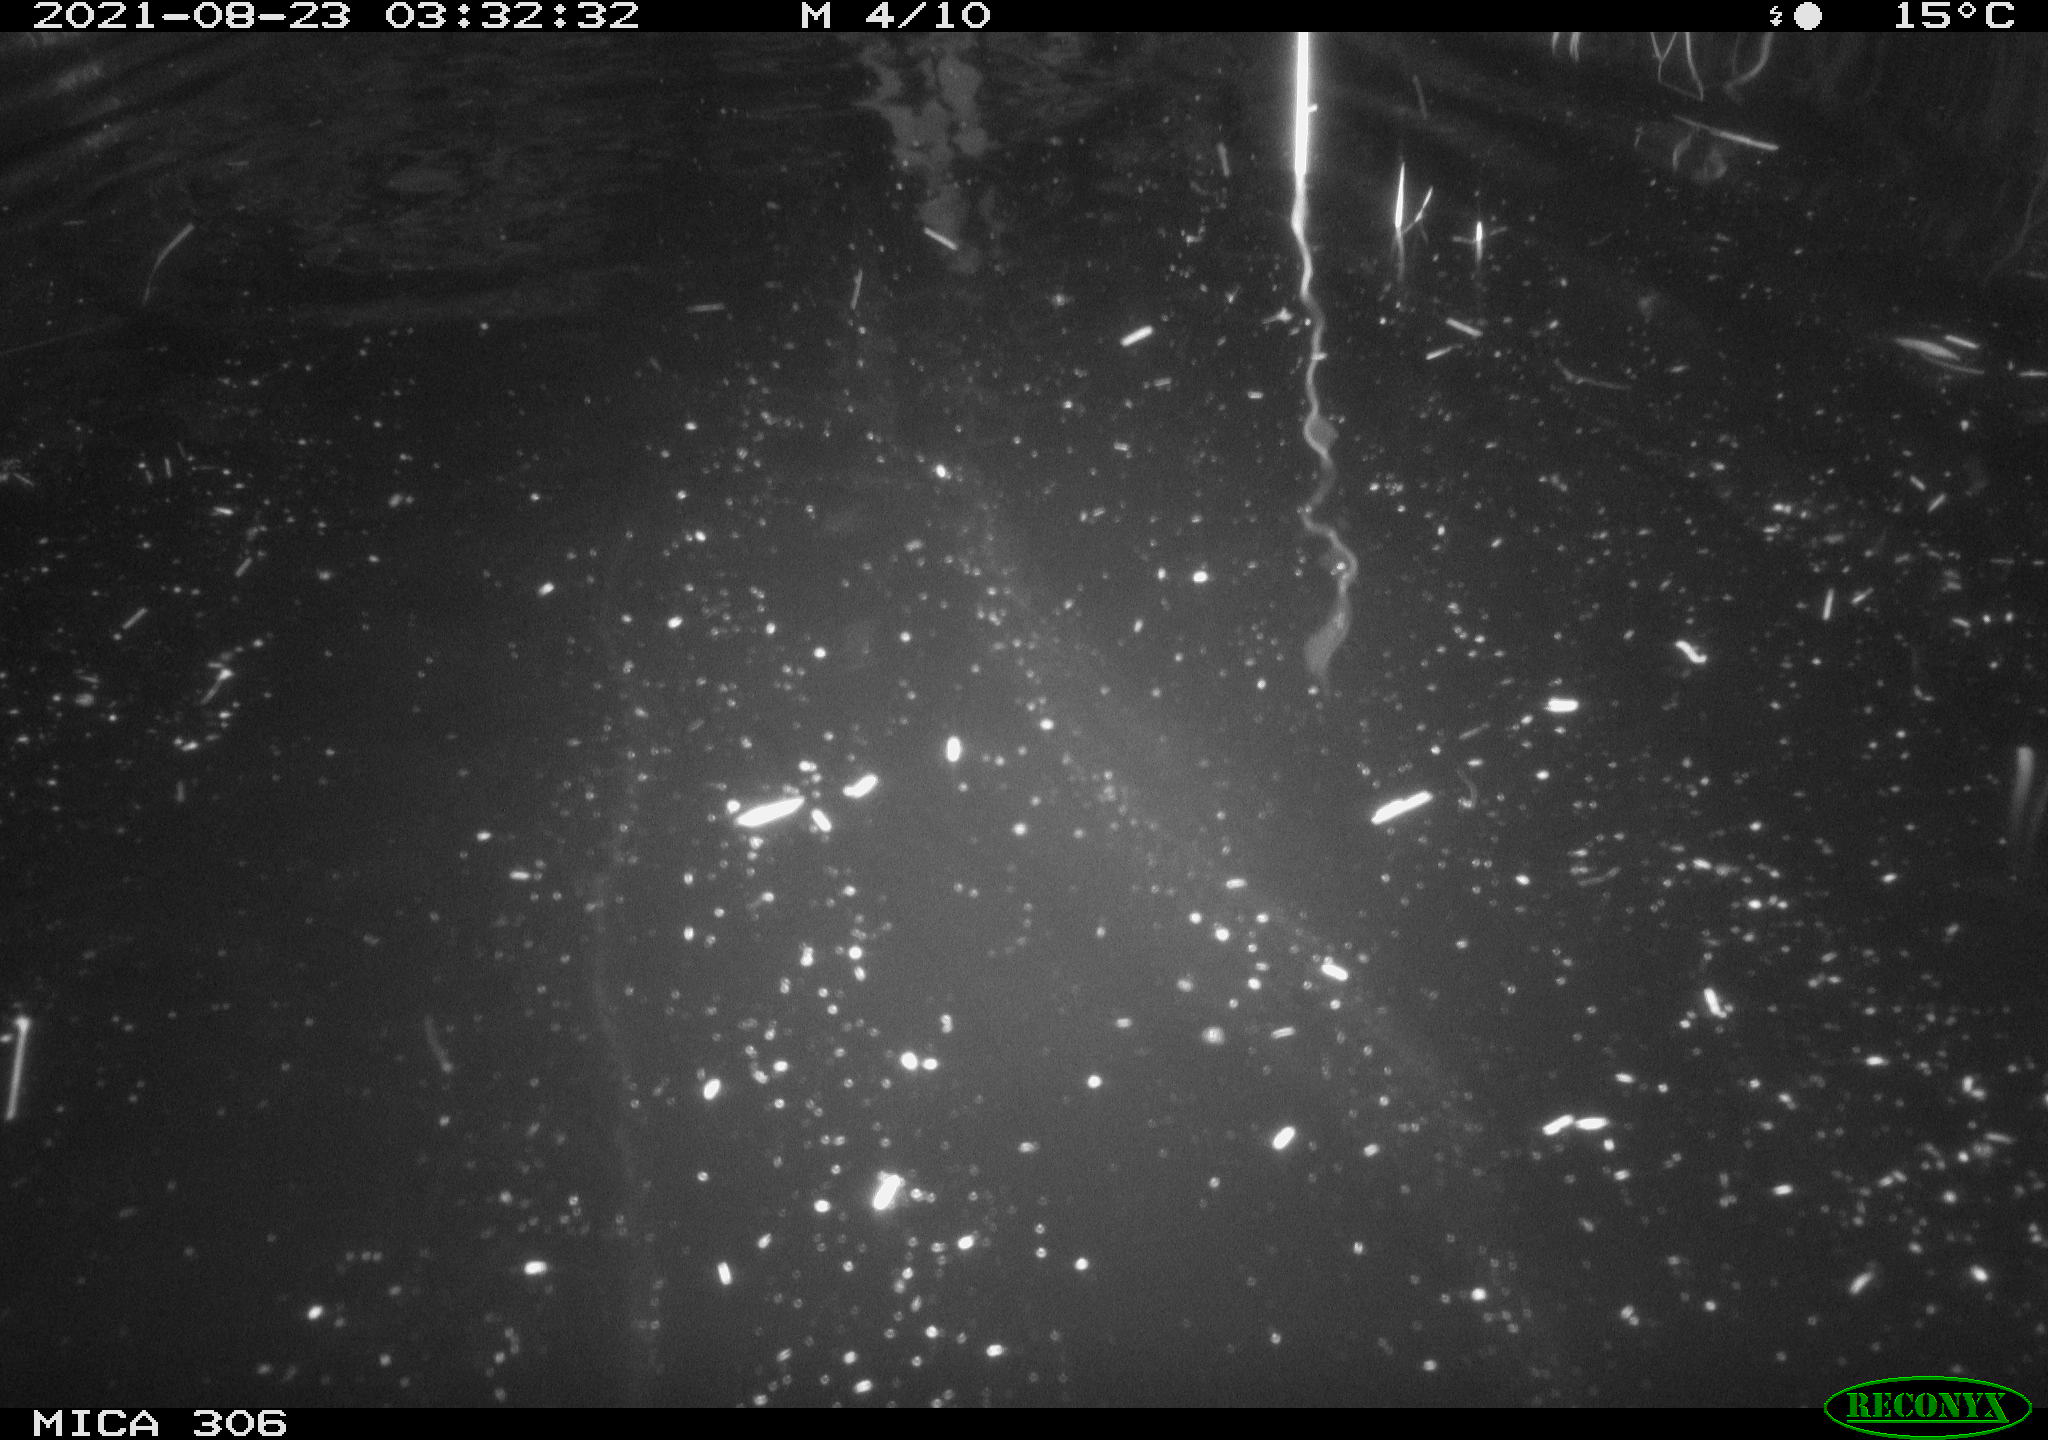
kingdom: Animalia
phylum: Chordata
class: Mammalia
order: Rodentia
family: Cricetidae
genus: Ondatra
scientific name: Ondatra zibethicus
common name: Muskrat
